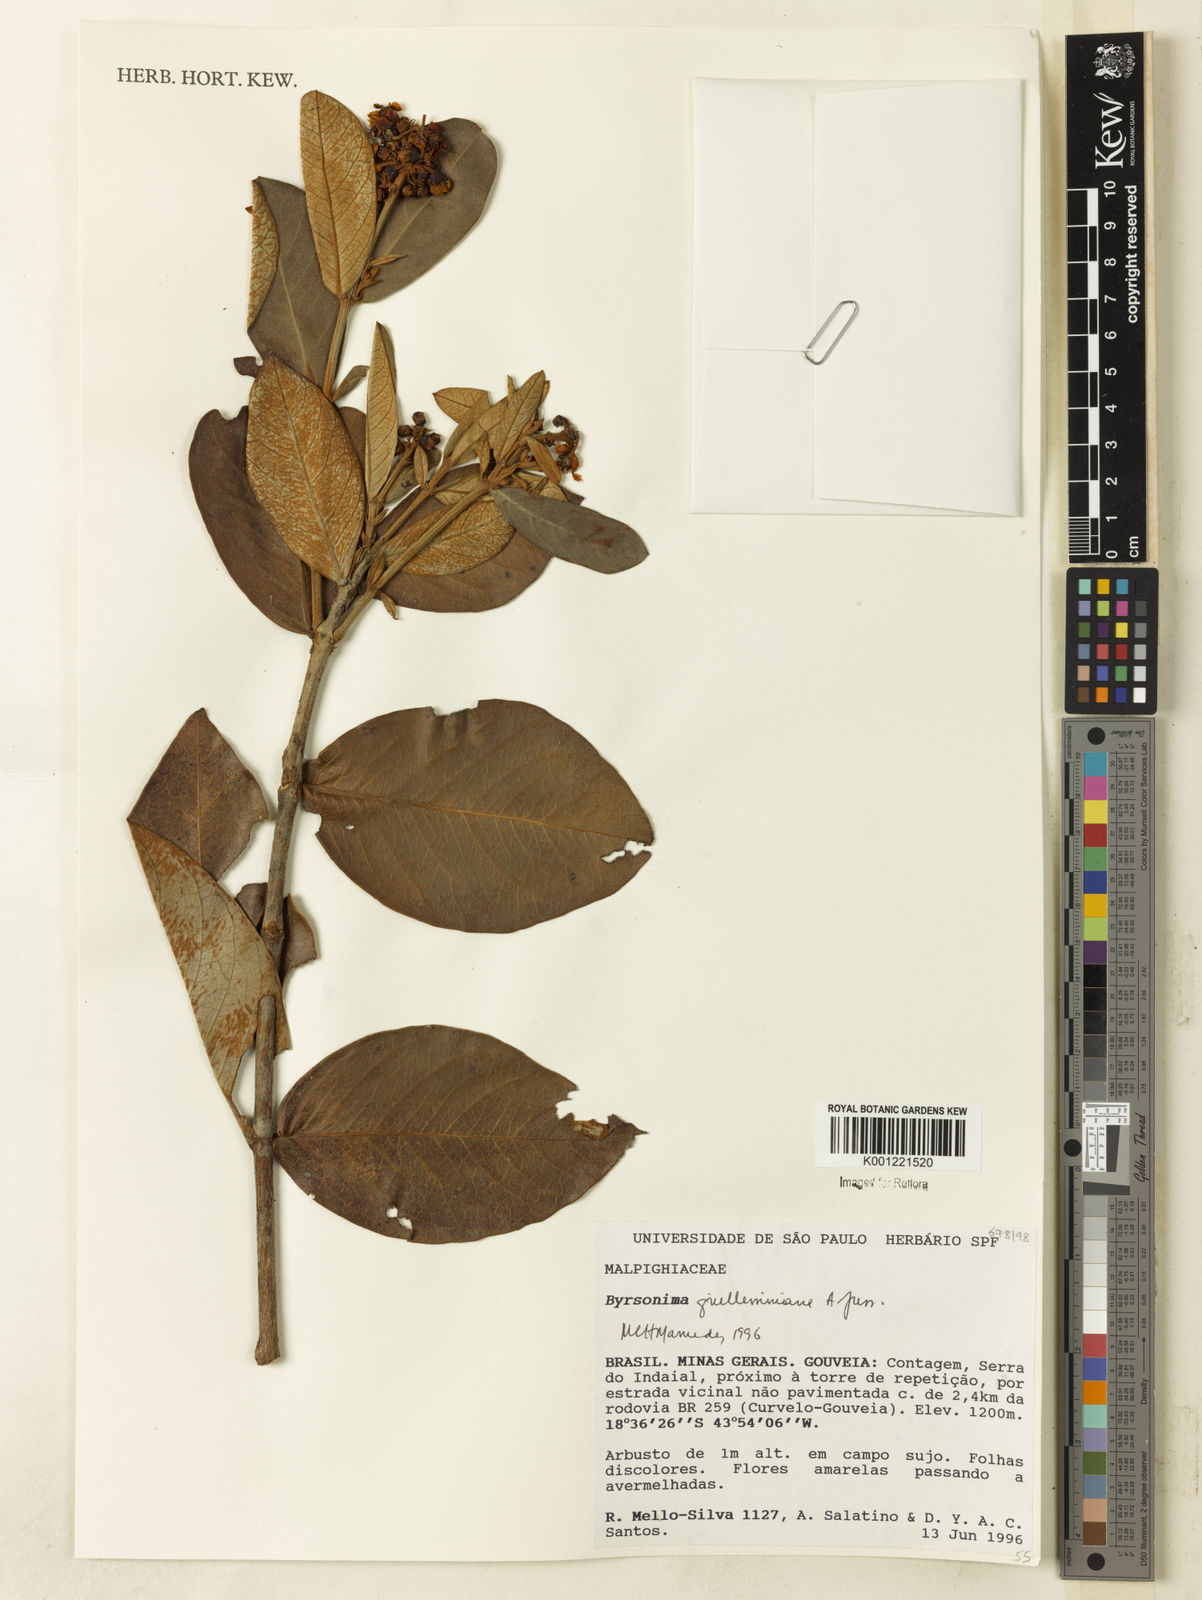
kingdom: Plantae
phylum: Tracheophyta
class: Magnoliopsida
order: Malpighiales
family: Malpighiaceae
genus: Byrsonima
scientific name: Byrsonima guilleminiana
